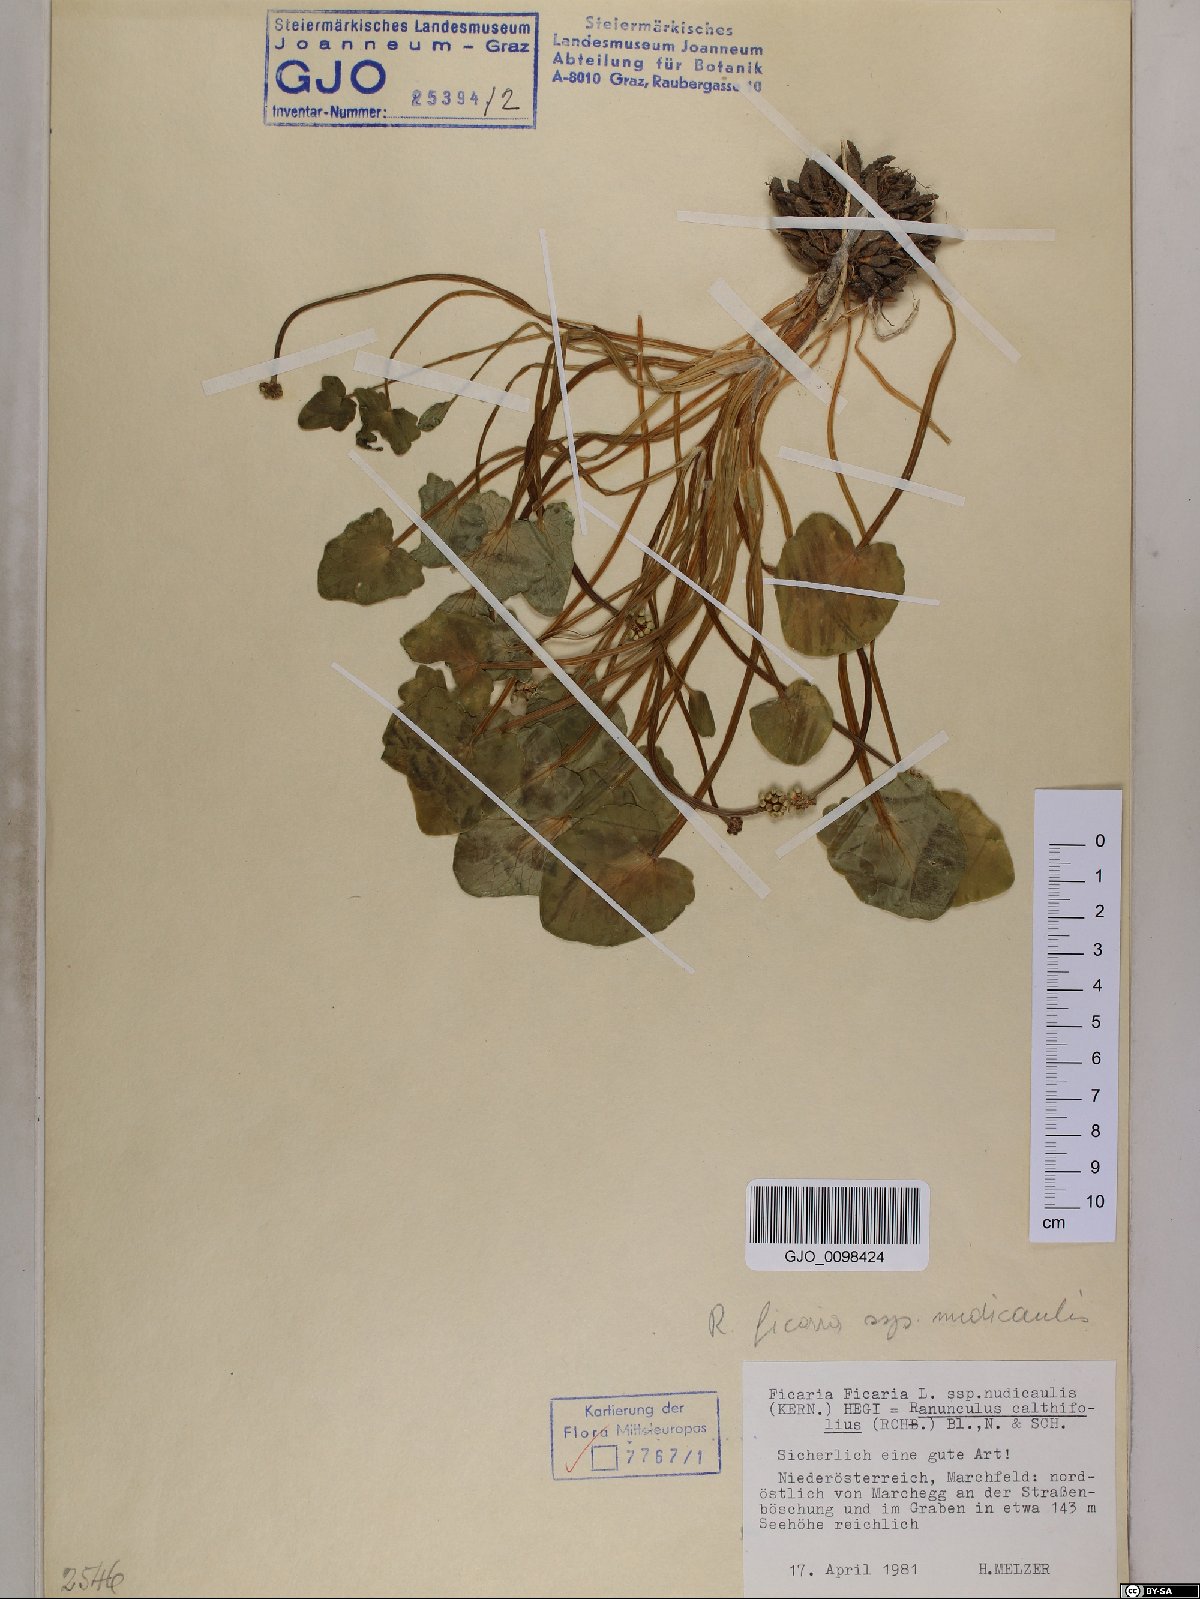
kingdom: Plantae
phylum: Tracheophyta
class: Magnoliopsida
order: Ranunculales
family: Ranunculaceae
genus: Ficaria
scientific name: Ficaria calthifolia
